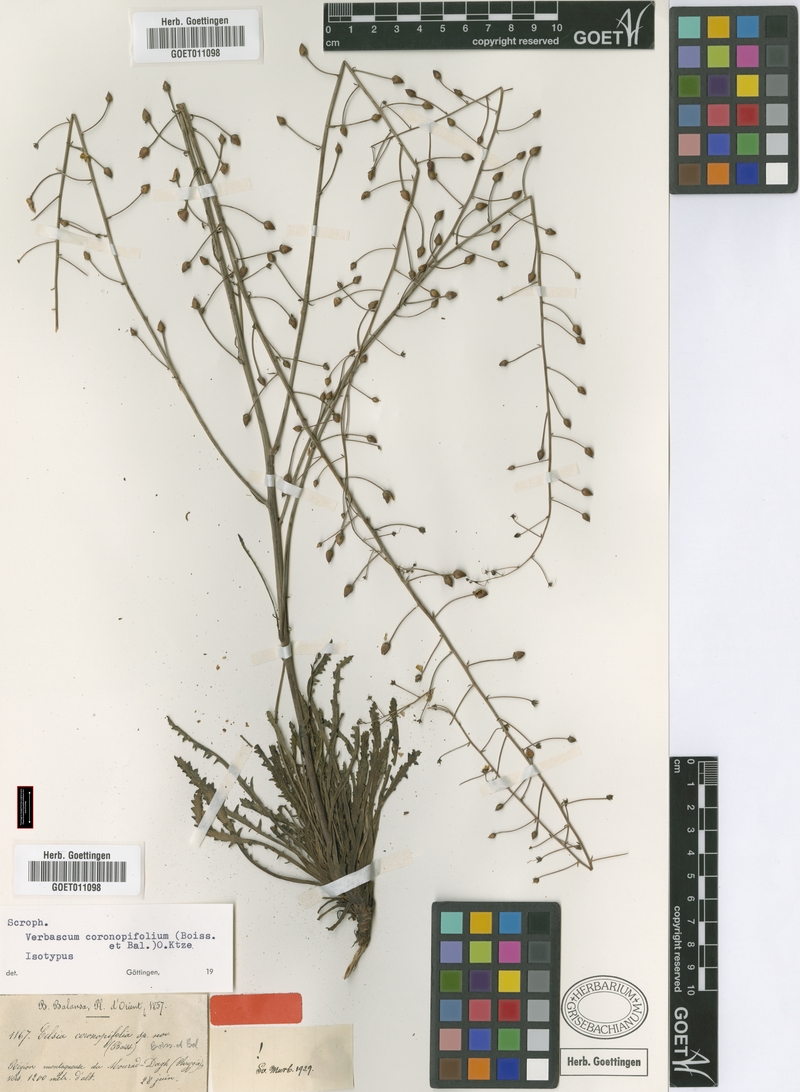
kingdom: Plantae
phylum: Tracheophyta
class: Magnoliopsida
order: Lamiales
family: Scrophulariaceae
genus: Verbascum
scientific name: Verbascum coronopifolium
